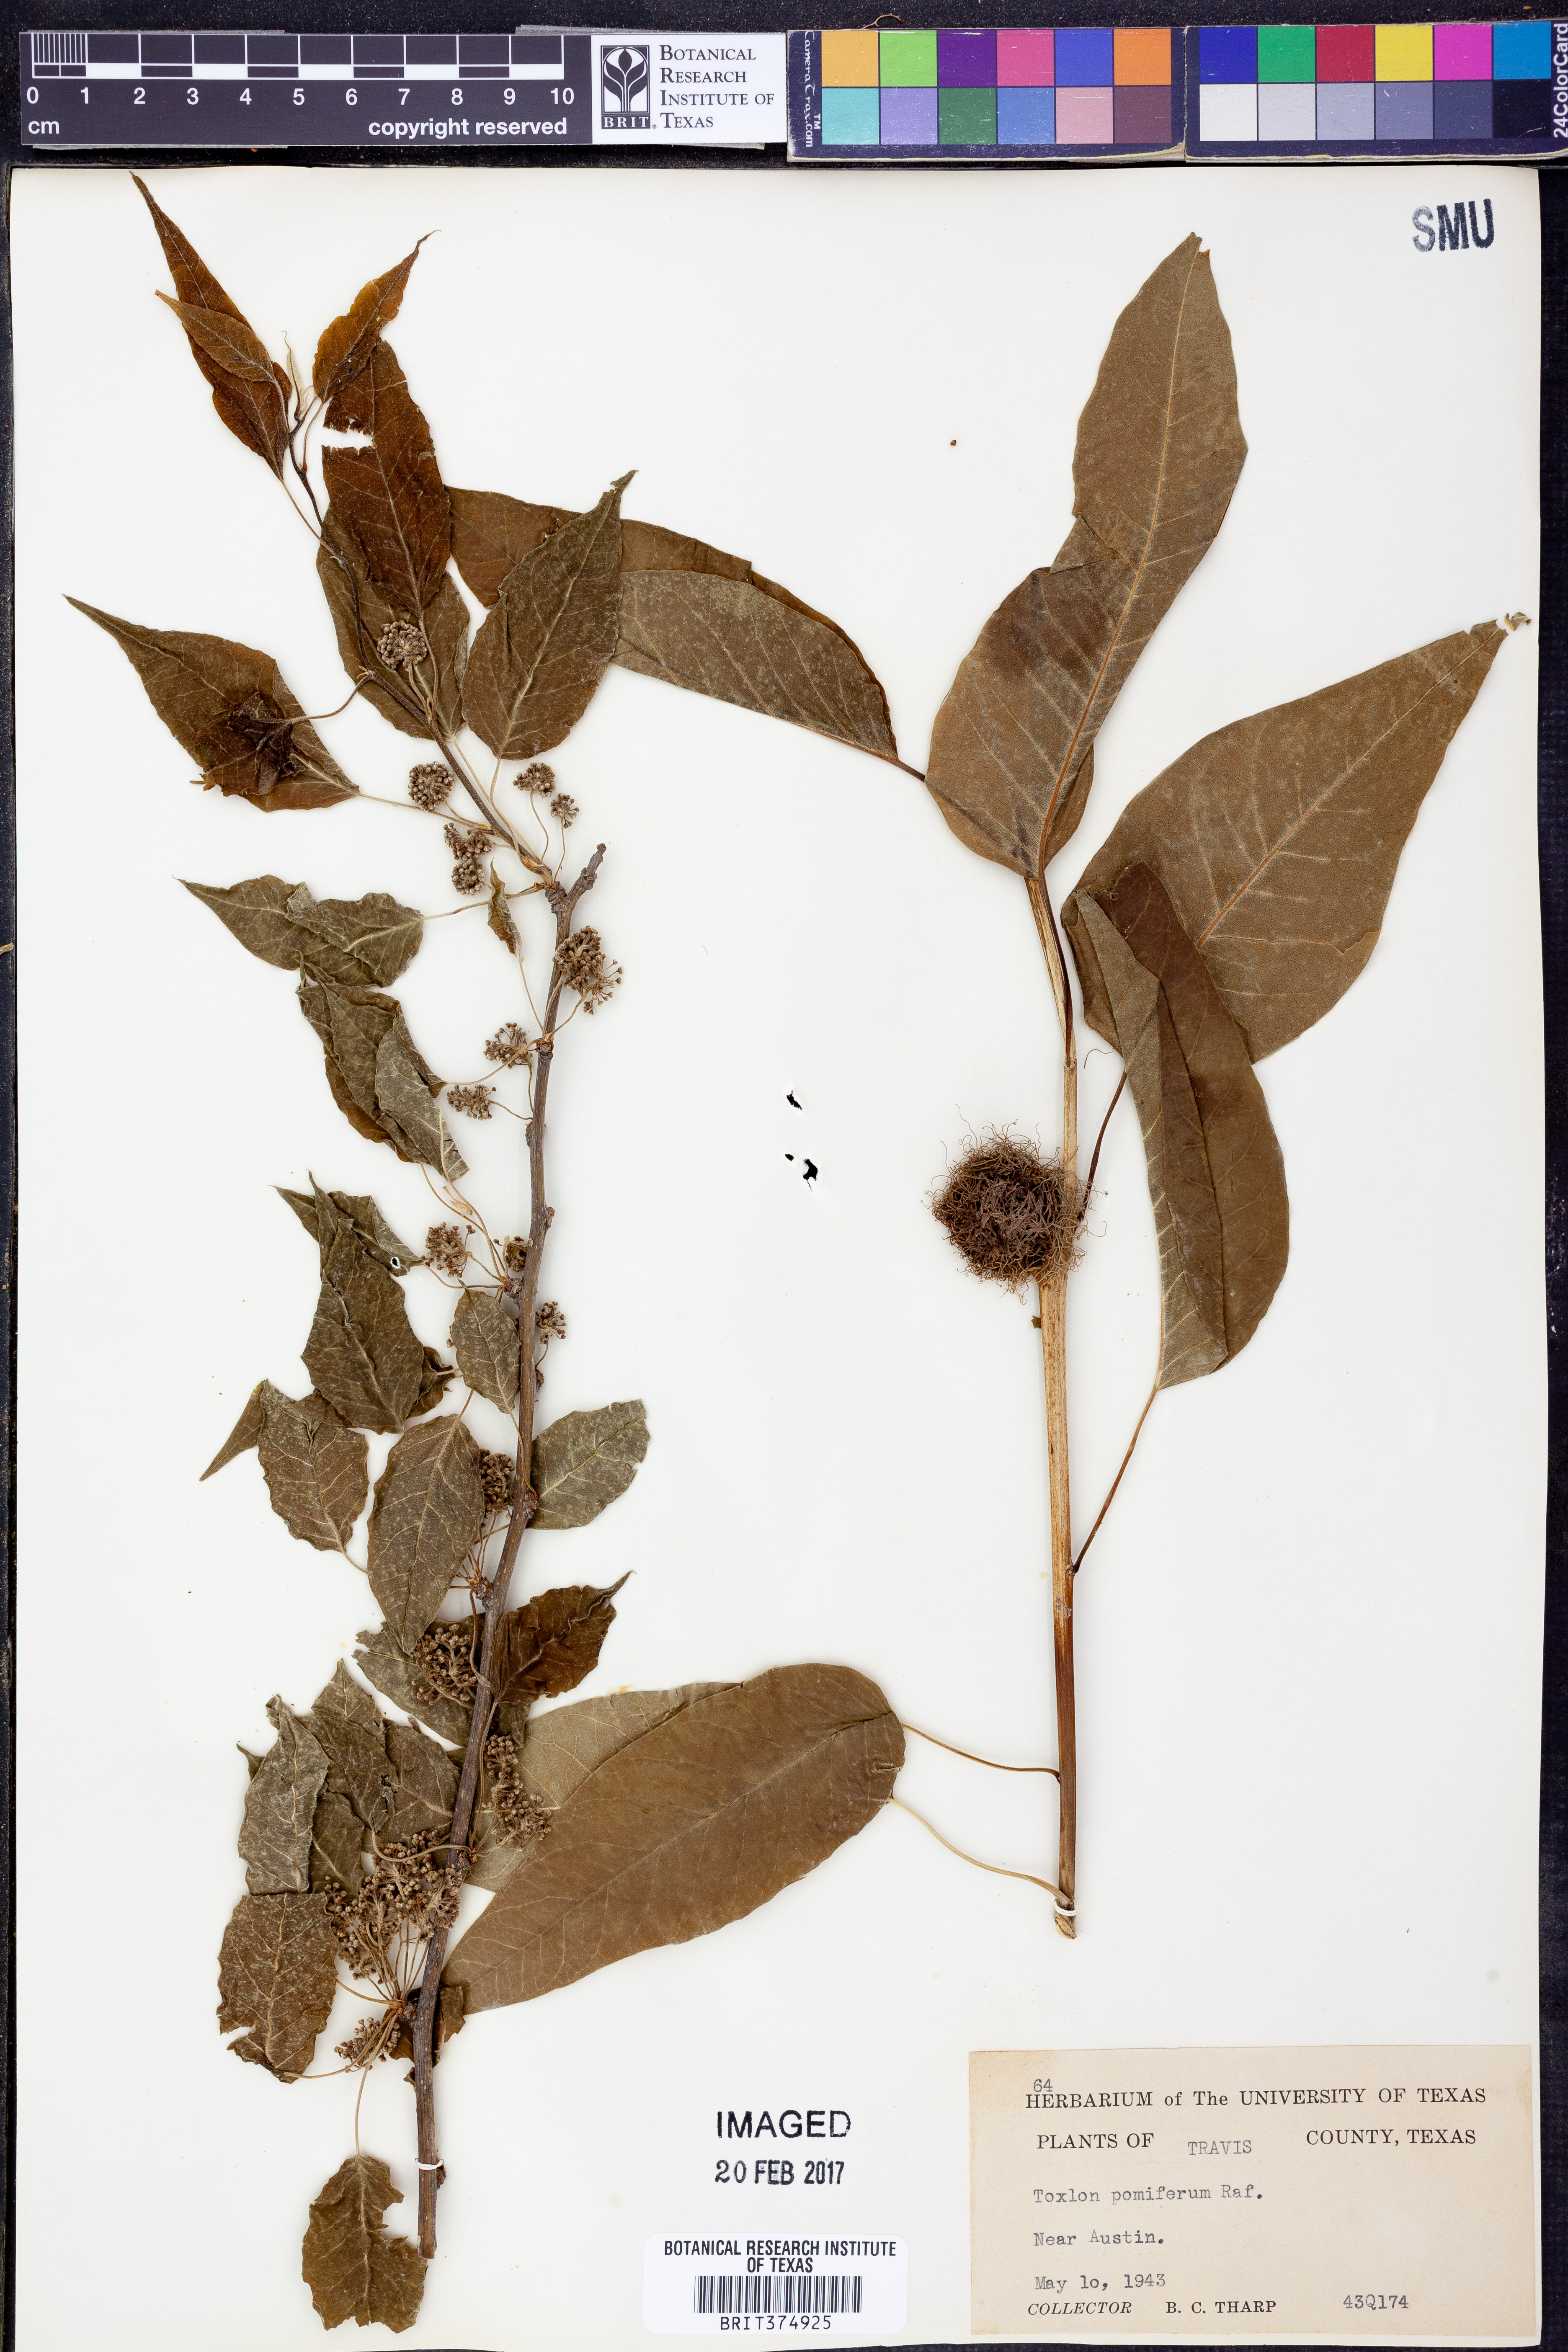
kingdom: Plantae
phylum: Tracheophyta
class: Magnoliopsida
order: Rosales
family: Moraceae
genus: Maclura
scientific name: Maclura pomifera
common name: Osage-orange
